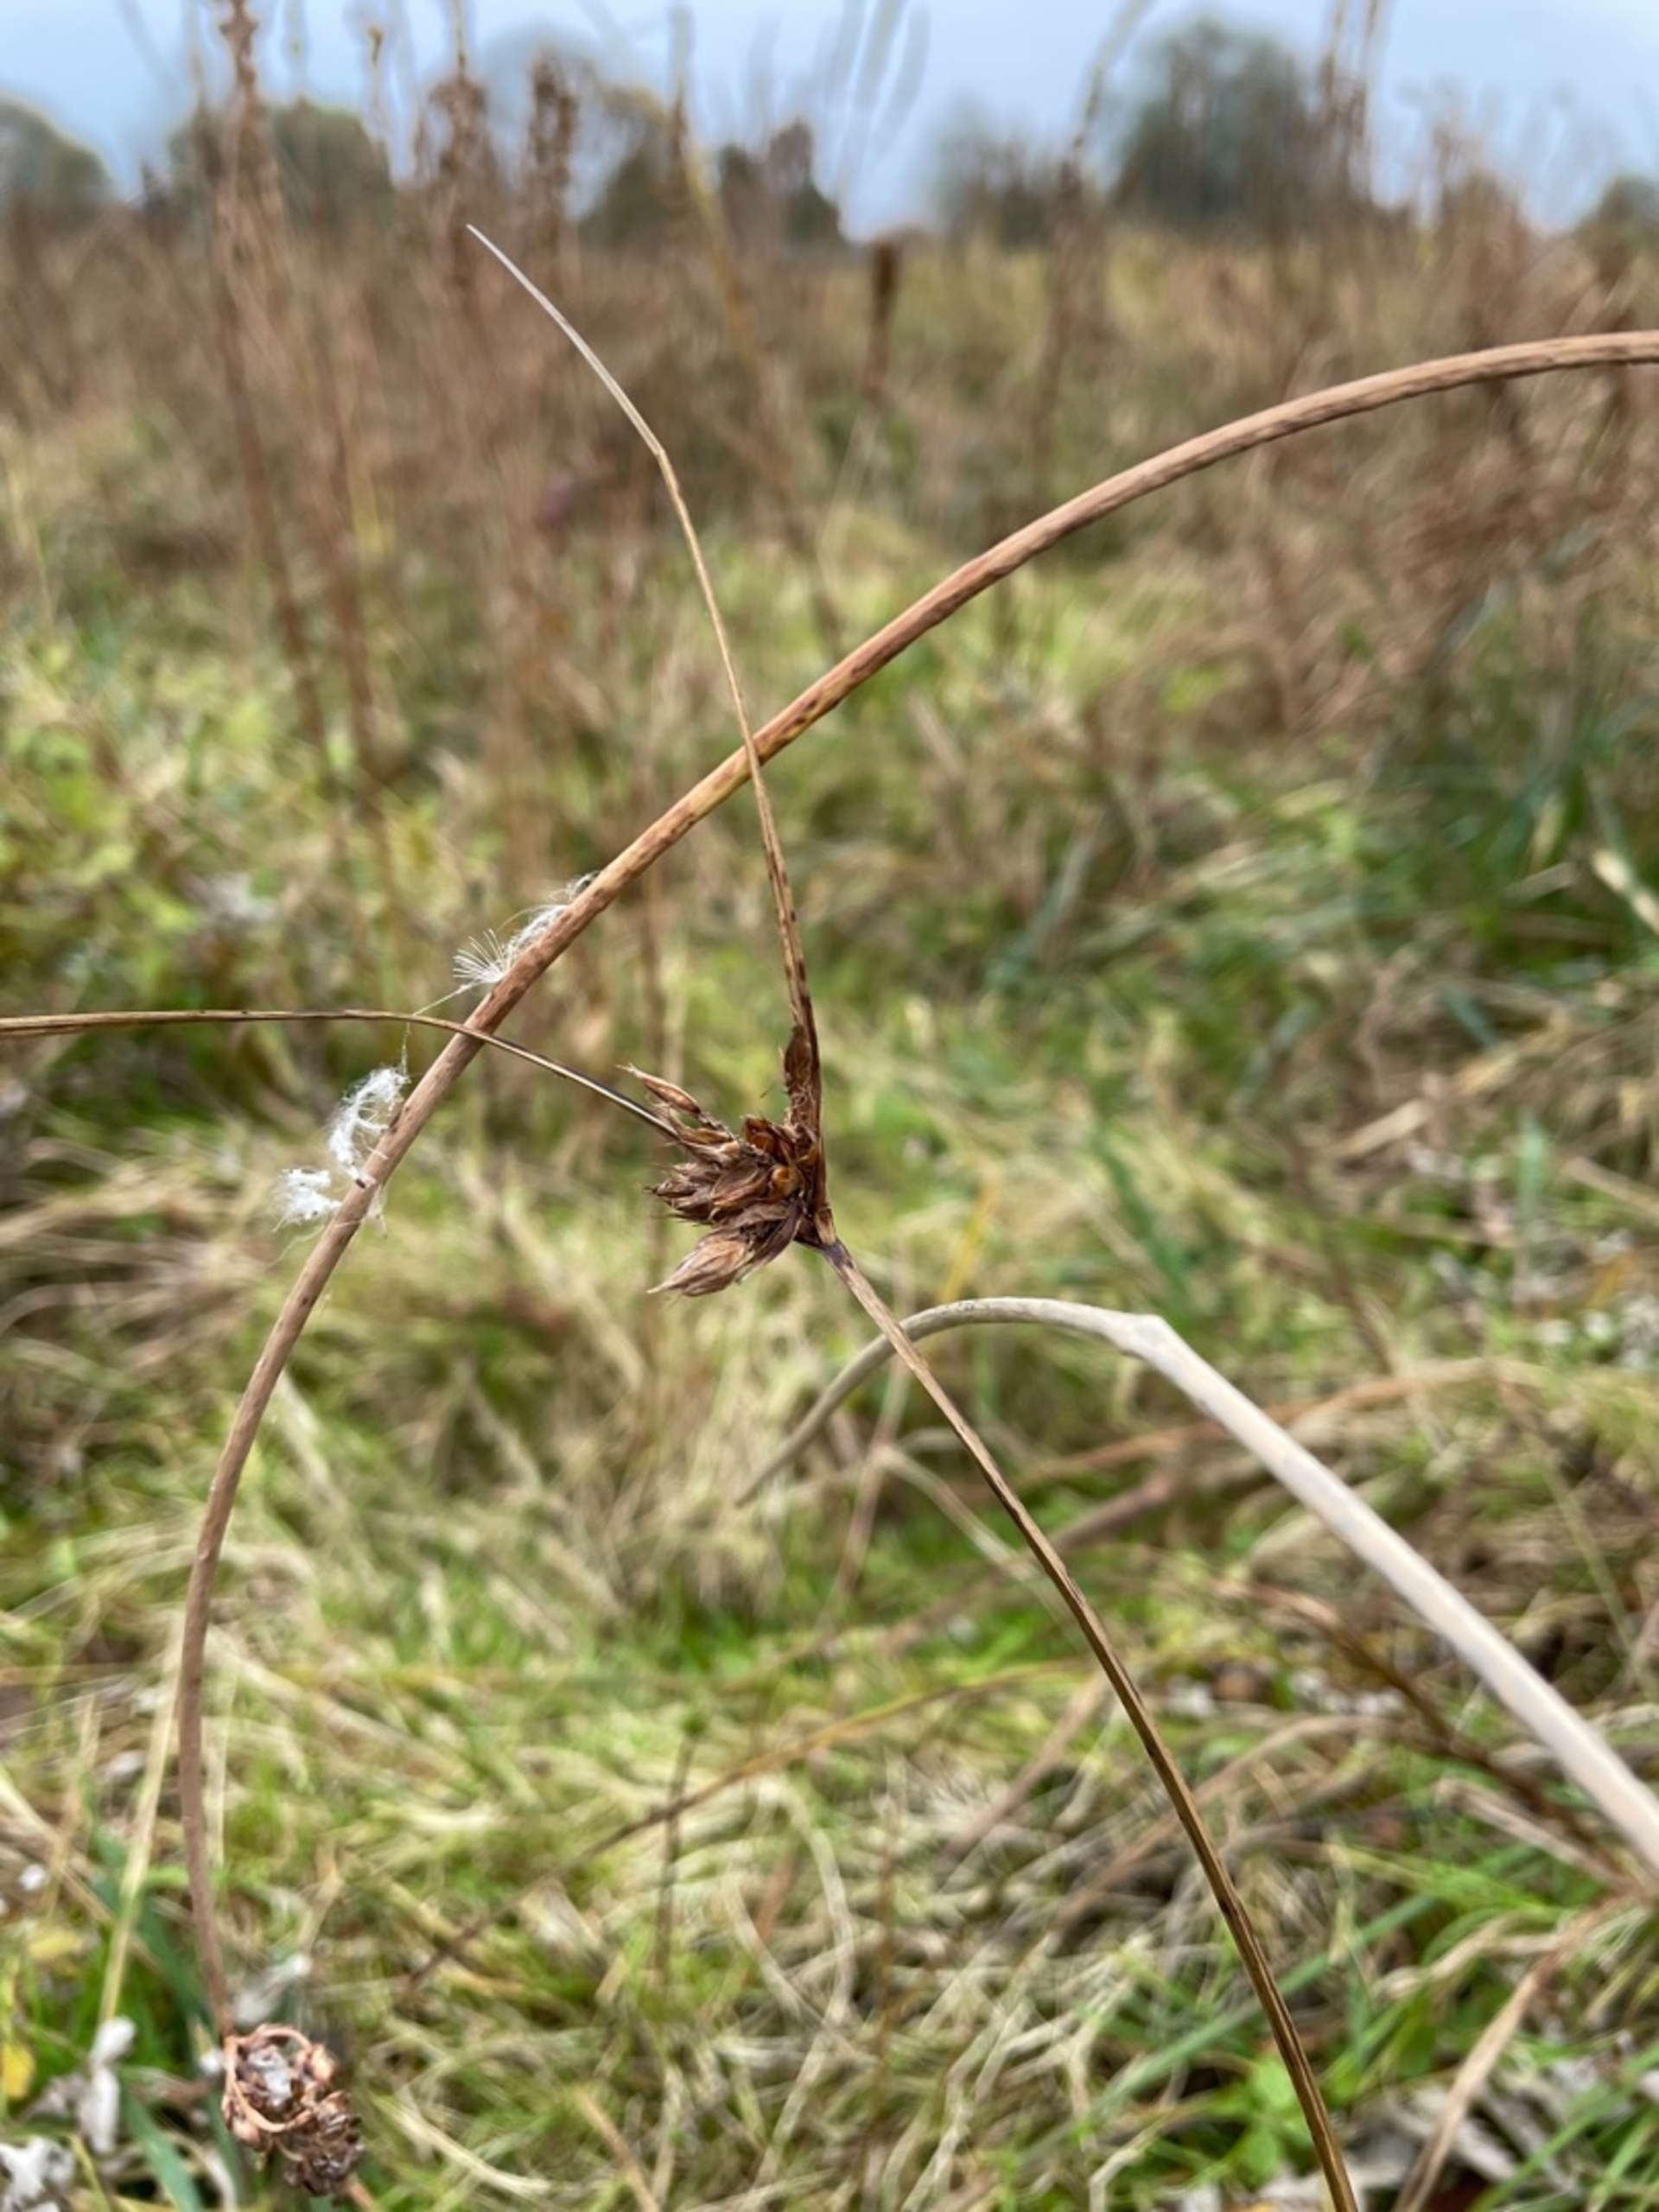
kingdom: Plantae
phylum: Tracheophyta
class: Liliopsida
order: Poales
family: Cyperaceae
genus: Bolboschoenus
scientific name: Bolboschoenus maritimus
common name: Strand-kogleaks
